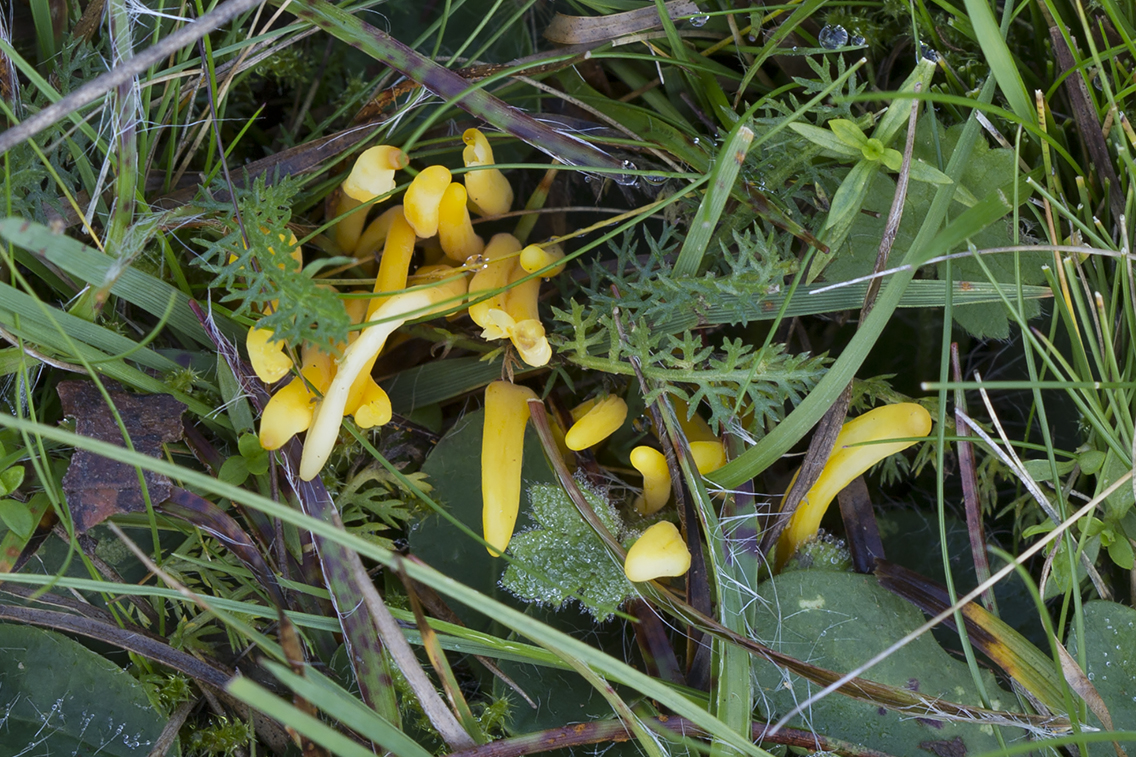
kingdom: Fungi
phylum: Basidiomycota
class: Agaricomycetes
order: Agaricales
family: Clavariaceae
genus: Clavulinopsis
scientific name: Clavulinopsis helvola
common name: orangegul køllesvamp
